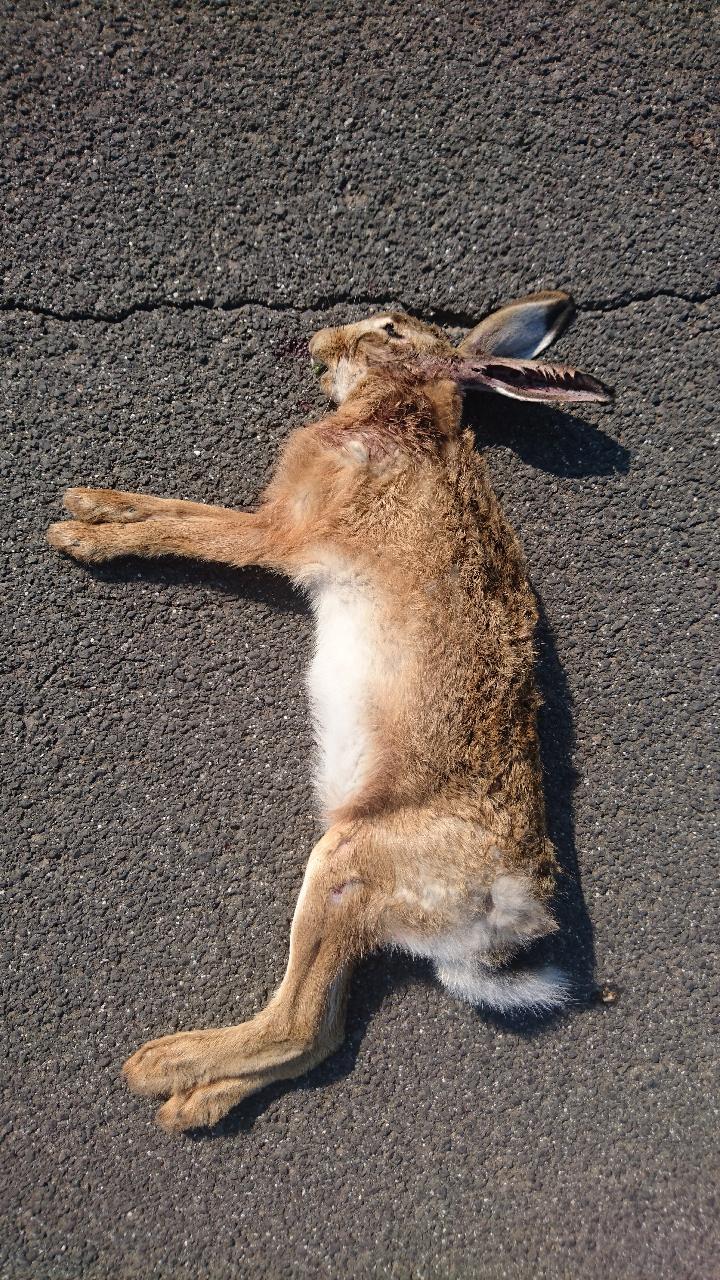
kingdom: Animalia
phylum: Chordata
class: Mammalia
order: Lagomorpha
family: Leporidae
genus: Lepus
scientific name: Lepus europaeus
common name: European hare
